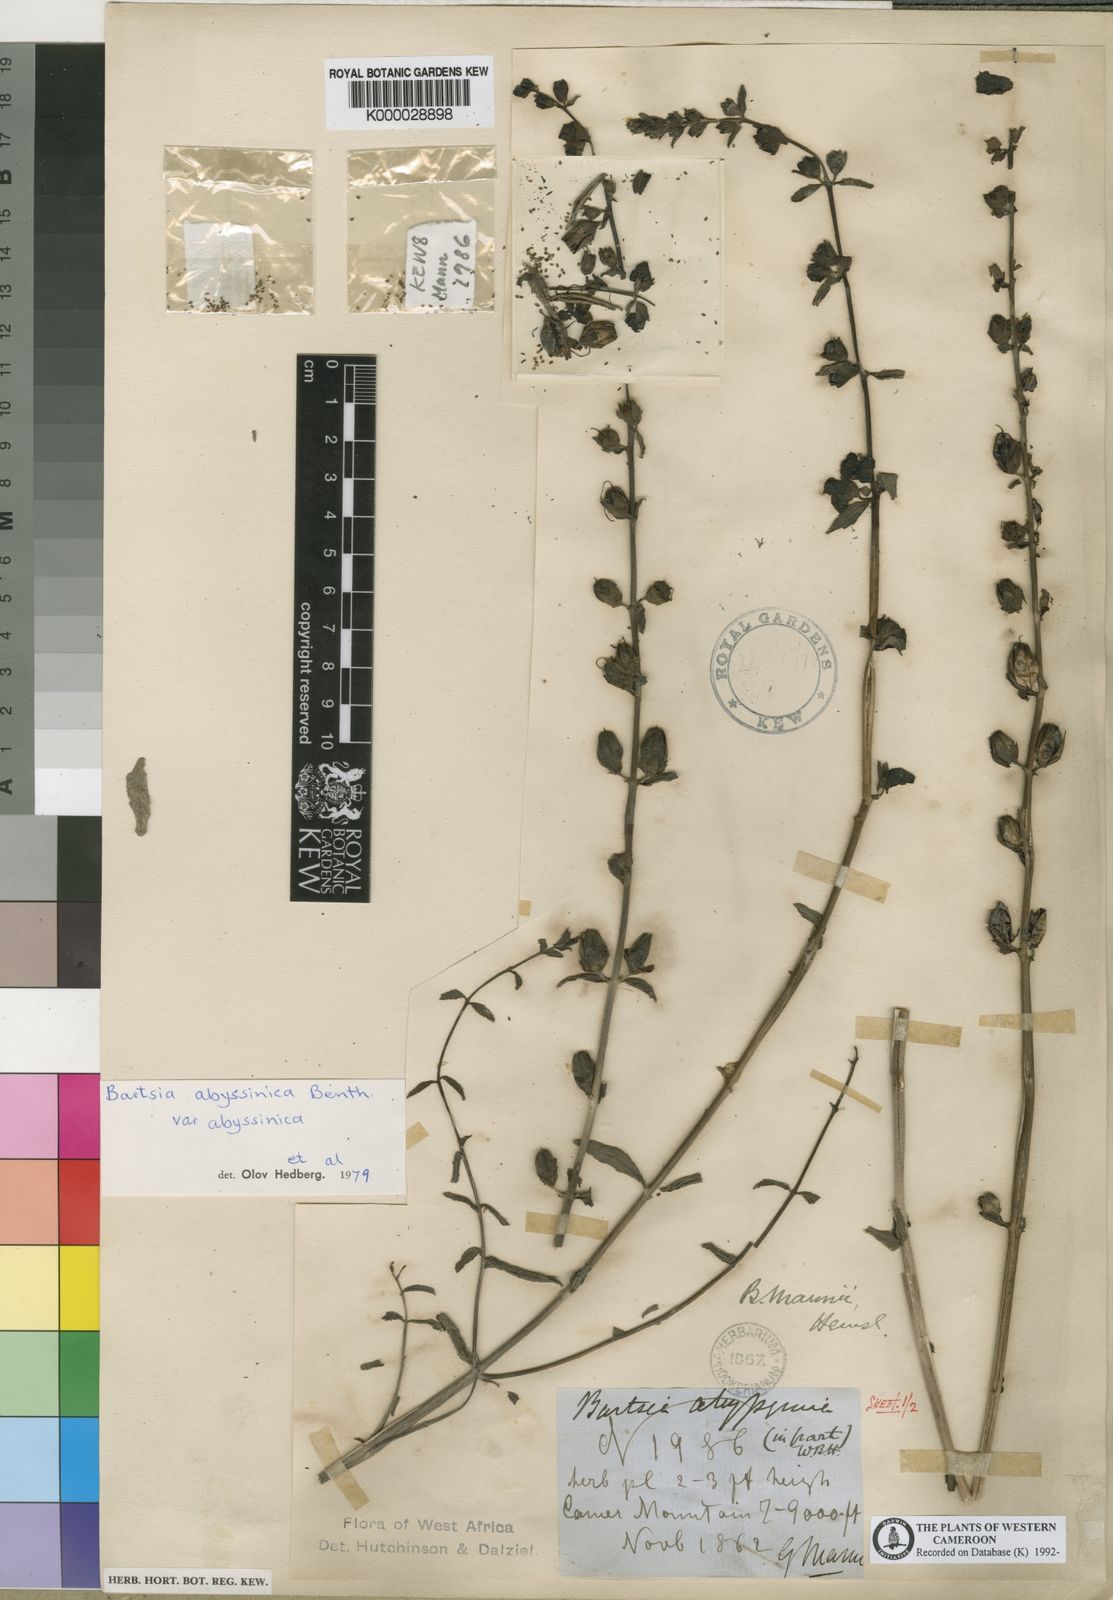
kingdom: Plantae
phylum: Tracheophyta
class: Magnoliopsida
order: Lamiales
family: Orobanchaceae
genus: Hedbergia
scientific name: Hedbergia abyssinica
